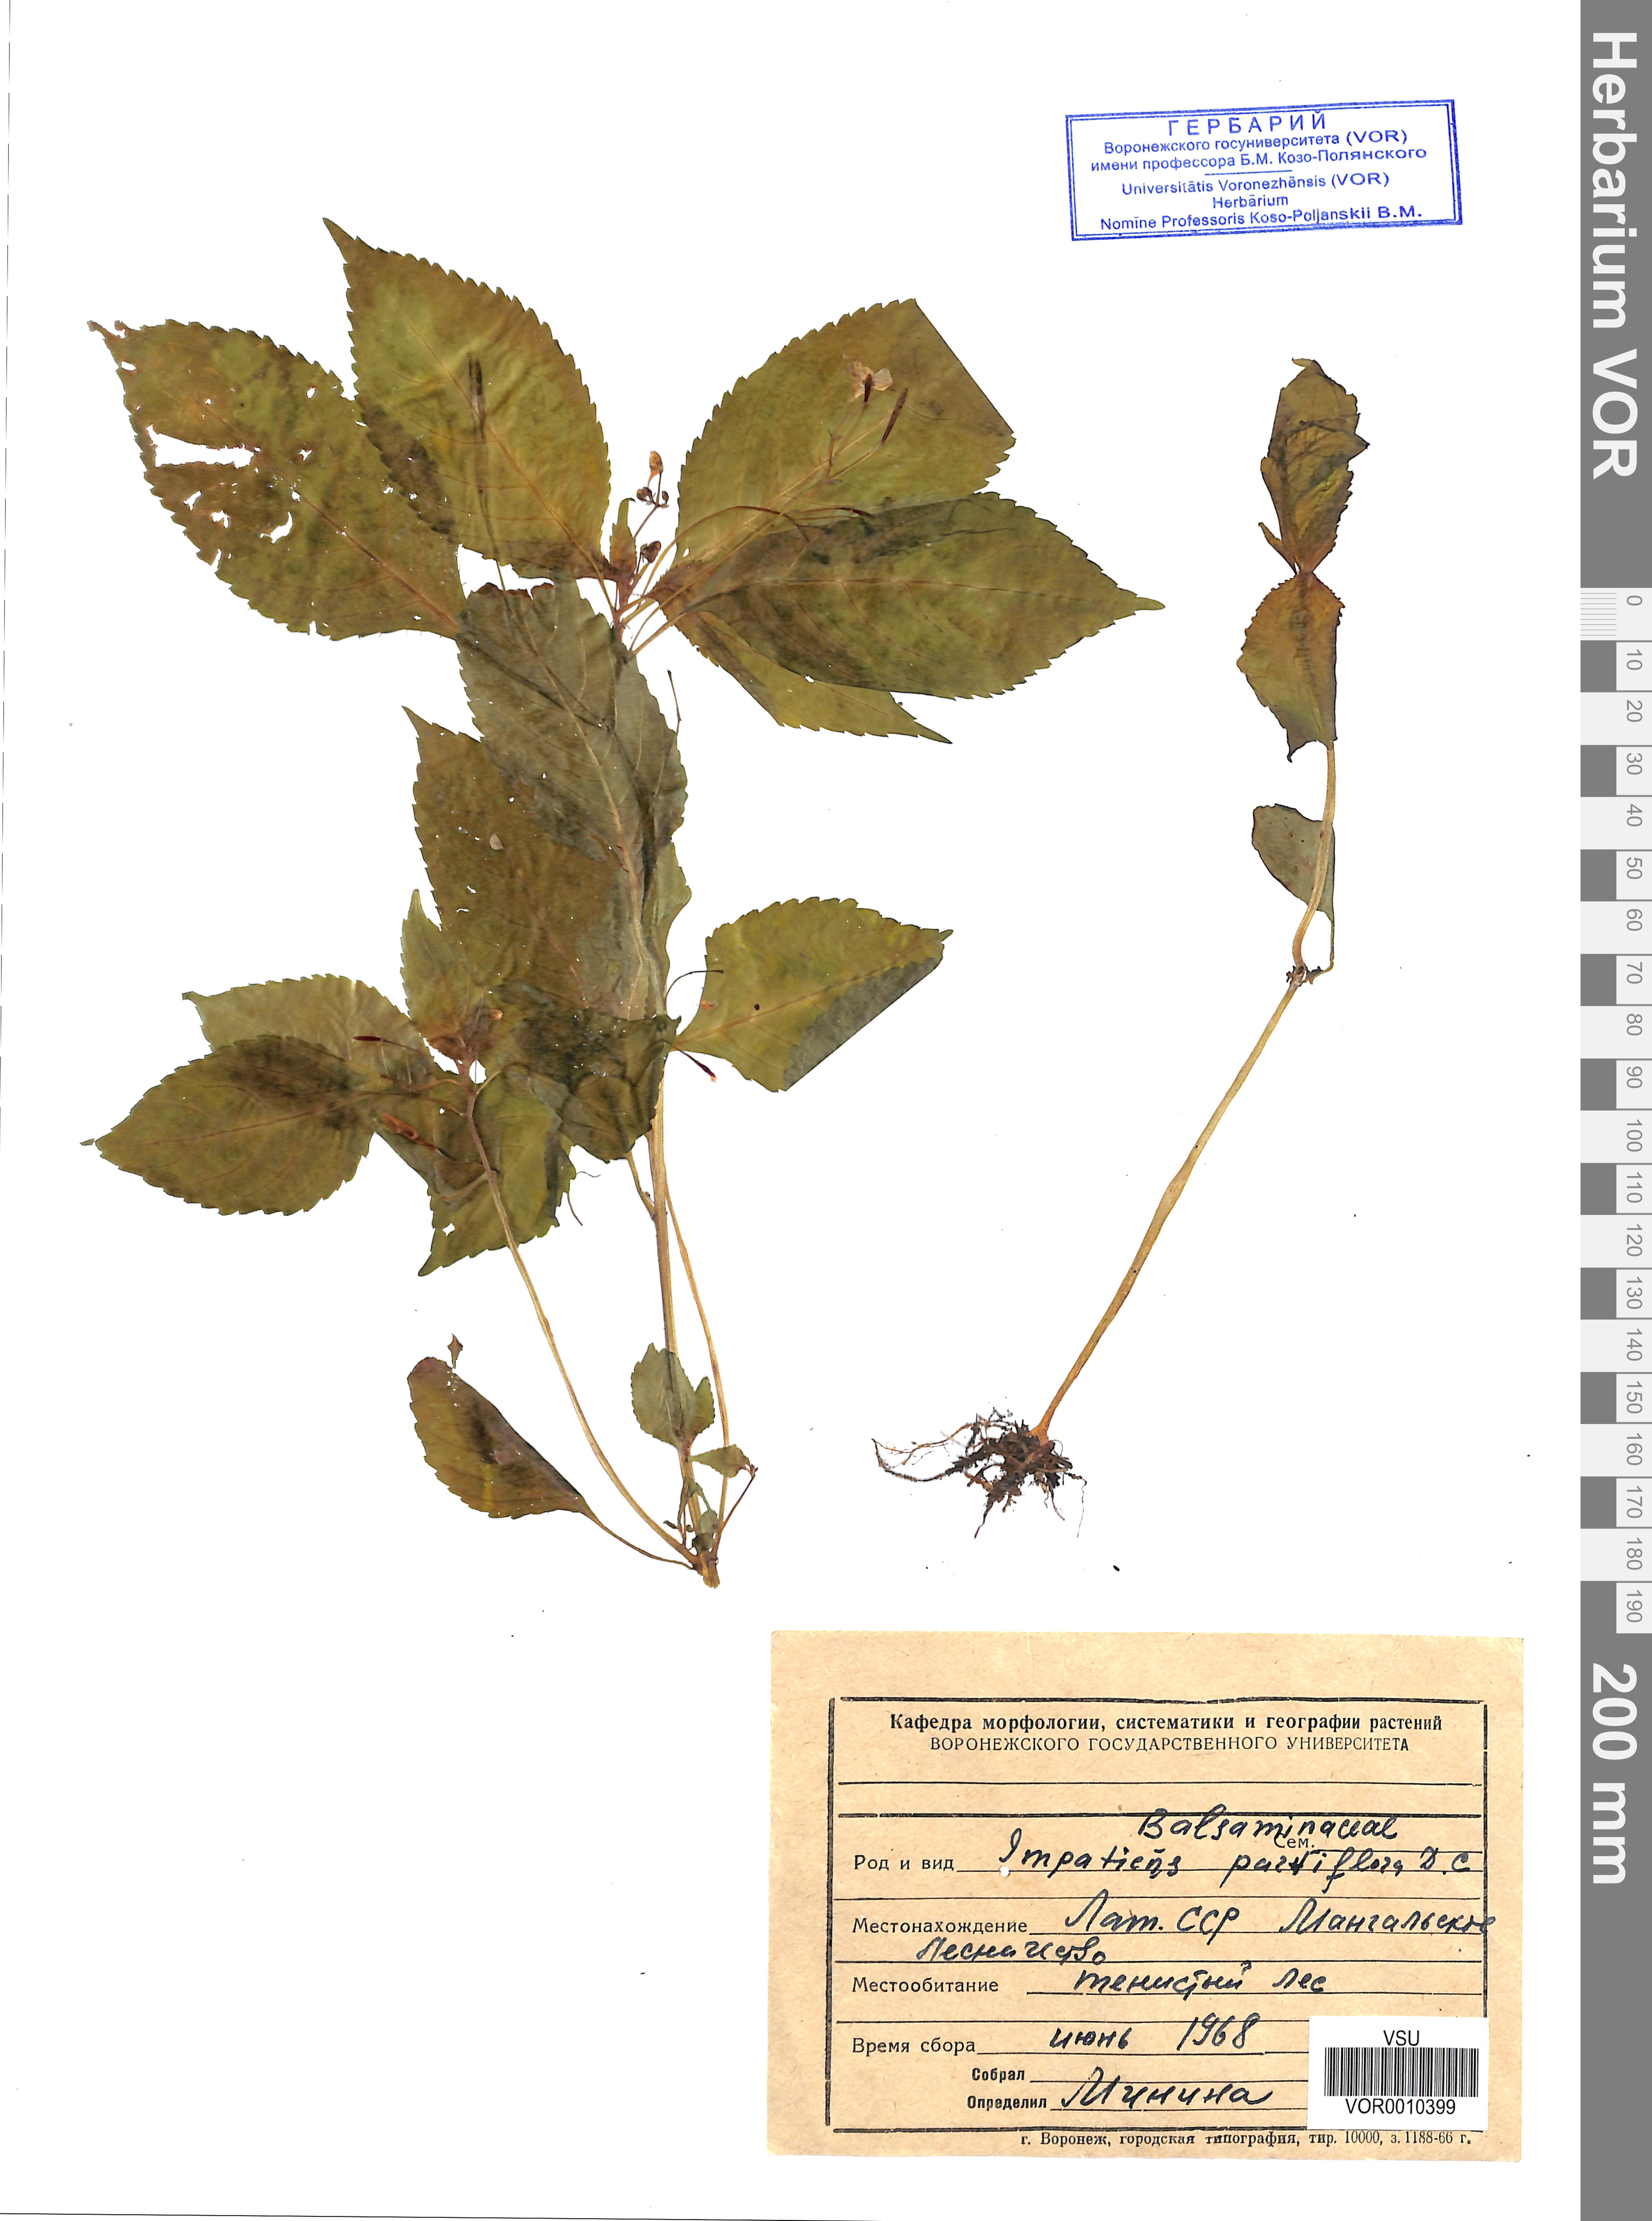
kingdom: Plantae
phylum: Tracheophyta
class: Magnoliopsida
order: Ericales
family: Balsaminaceae
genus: Impatiens
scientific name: Impatiens parviflora
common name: Small balsam
